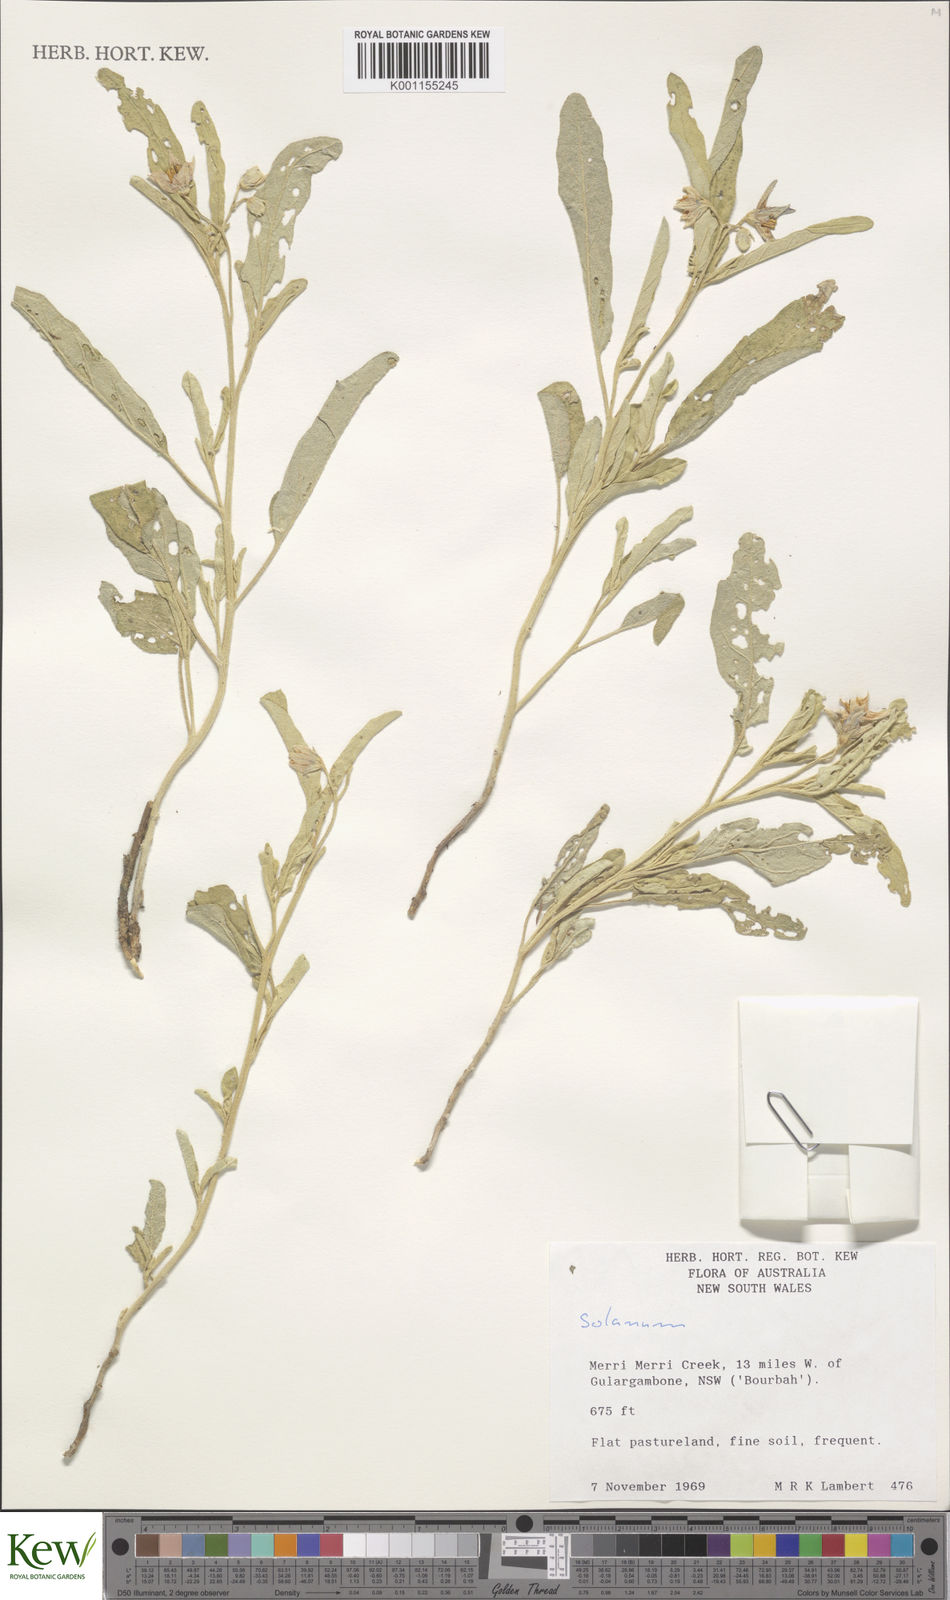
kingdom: Plantae
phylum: Tracheophyta
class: Magnoliopsida
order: Solanales
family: Solanaceae
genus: Solanum
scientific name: Solanum
